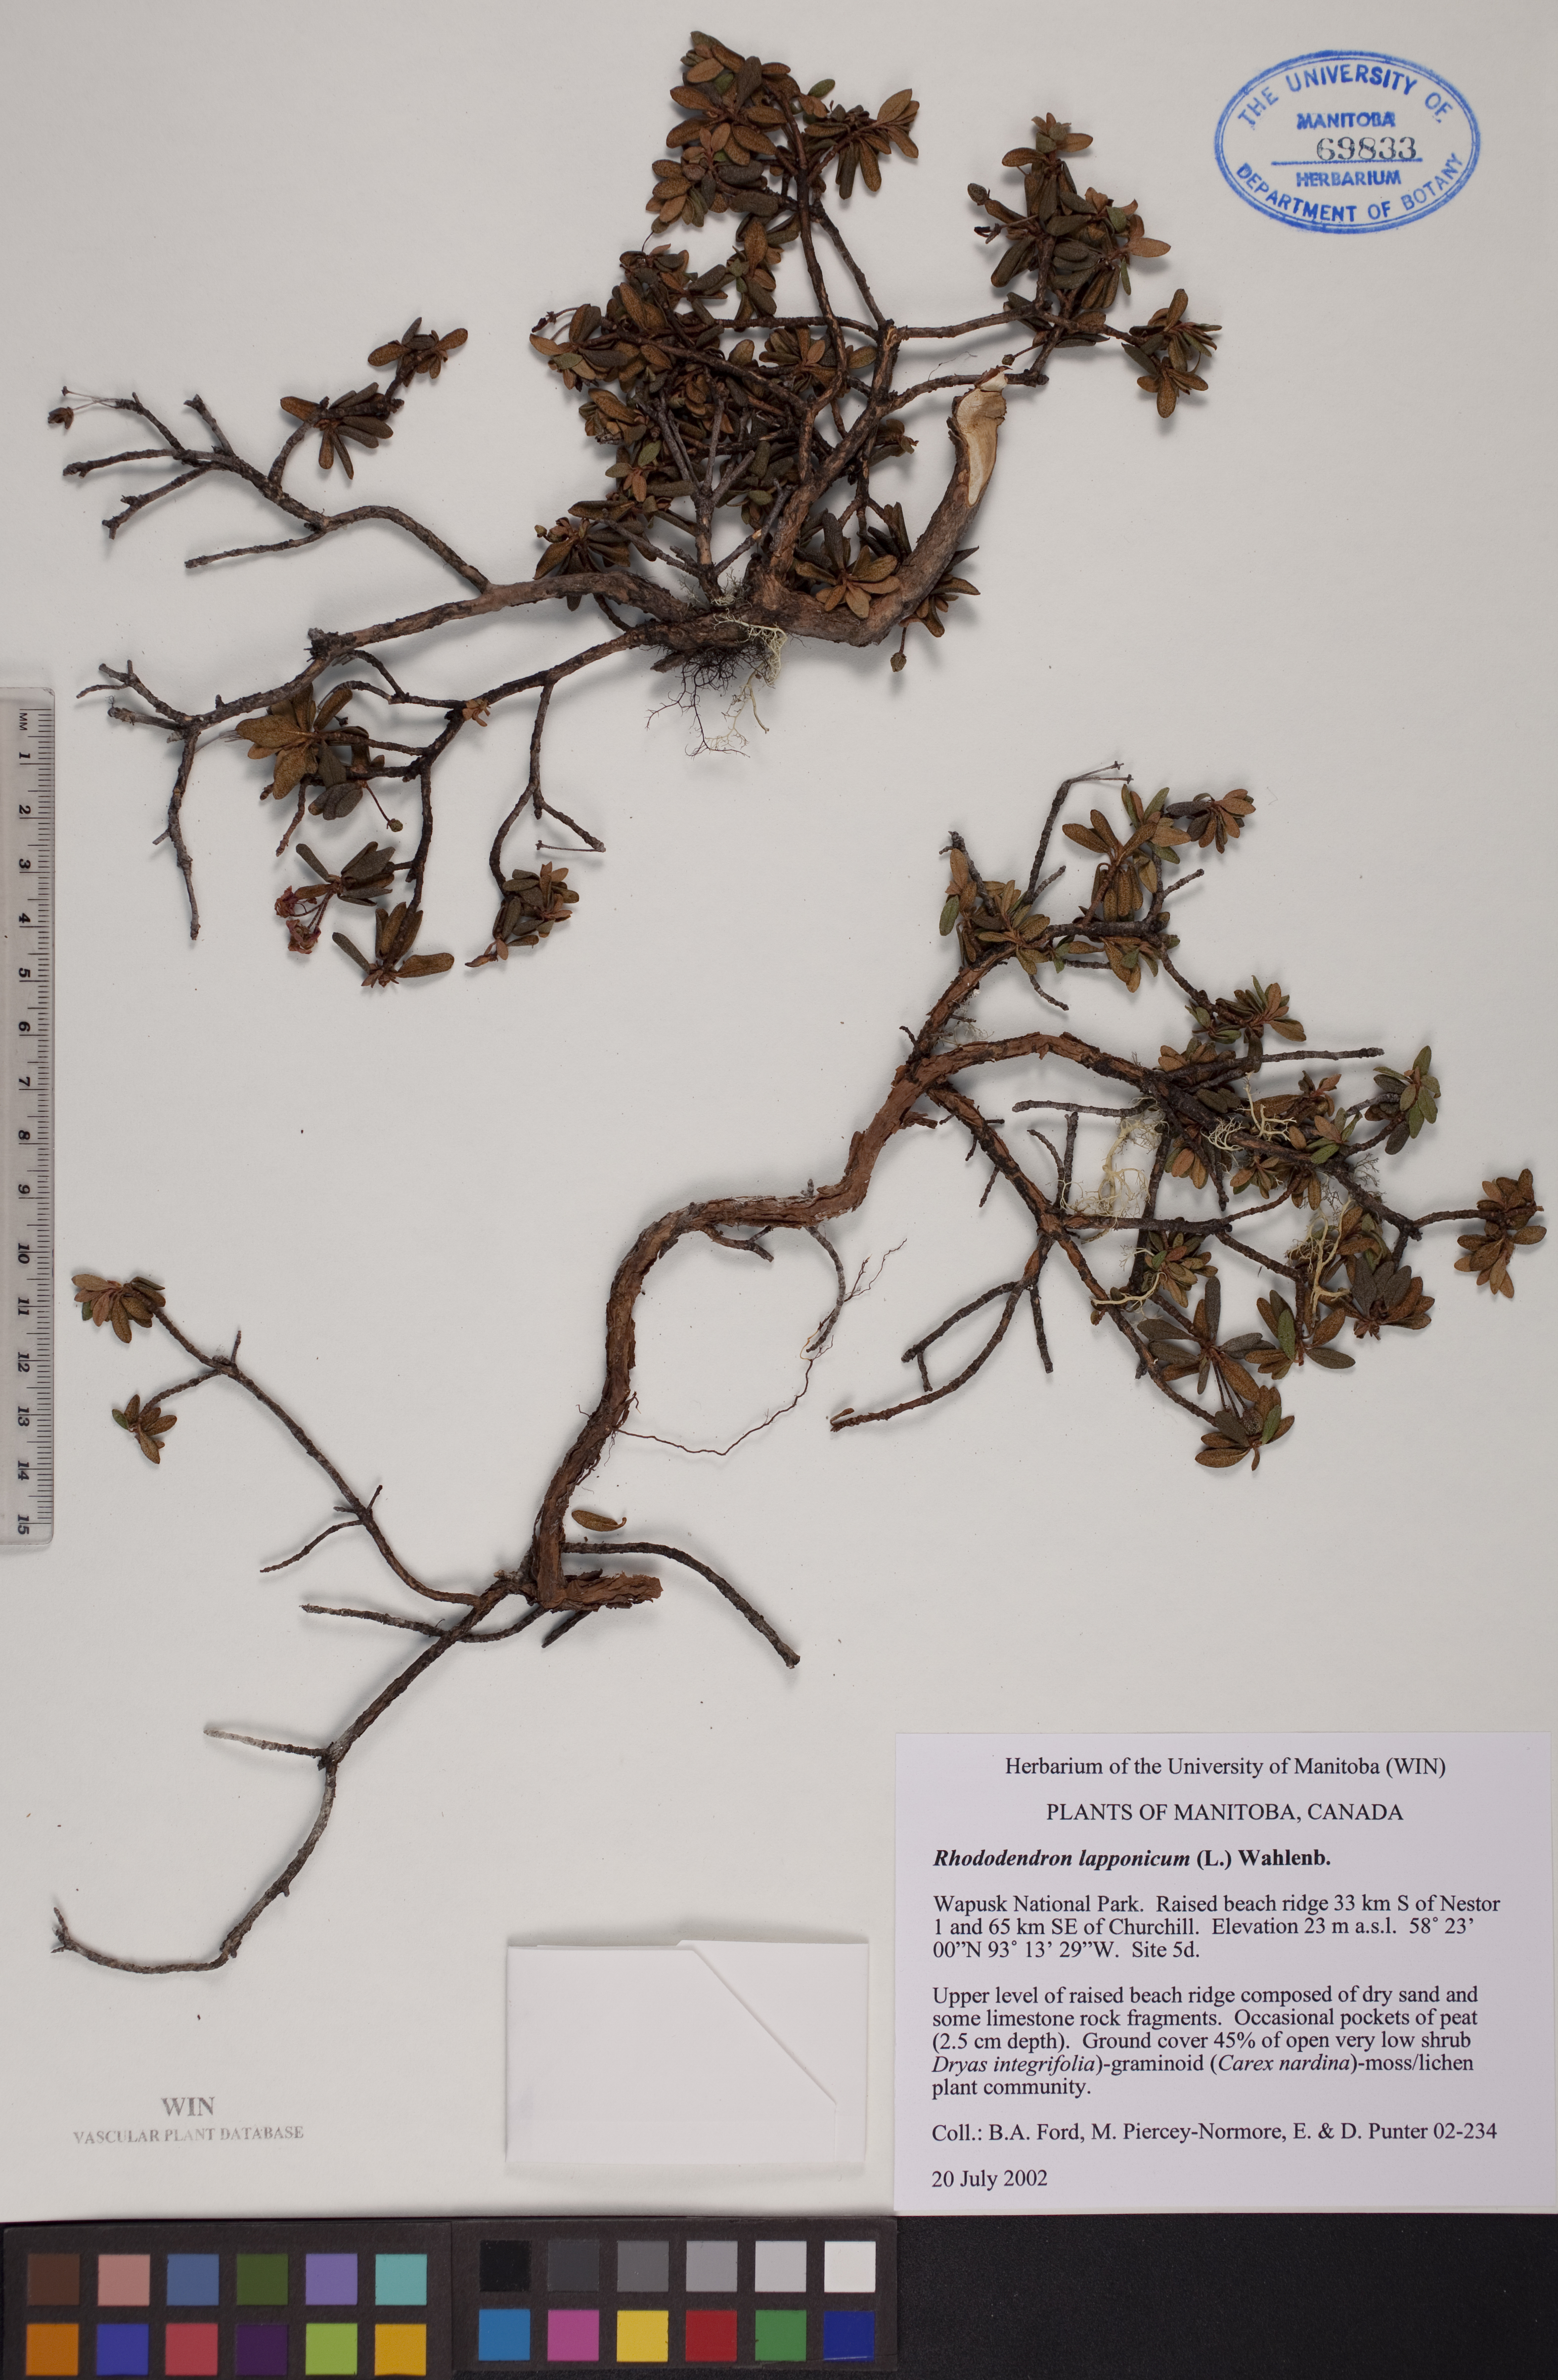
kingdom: Plantae
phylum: Tracheophyta
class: Magnoliopsida
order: Ericales
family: Ericaceae
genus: Rhododendron
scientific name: Rhododendron lapponicum
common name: Lapland rhododendron
